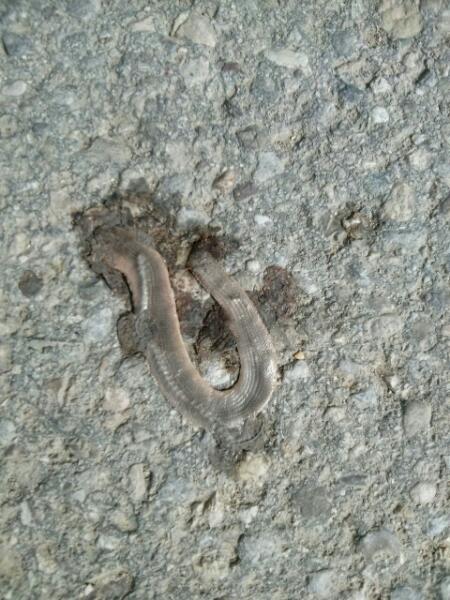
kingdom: Animalia
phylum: Chordata
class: Squamata
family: Anguidae
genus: Anguis
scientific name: Anguis fragilis
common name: Slow worm
